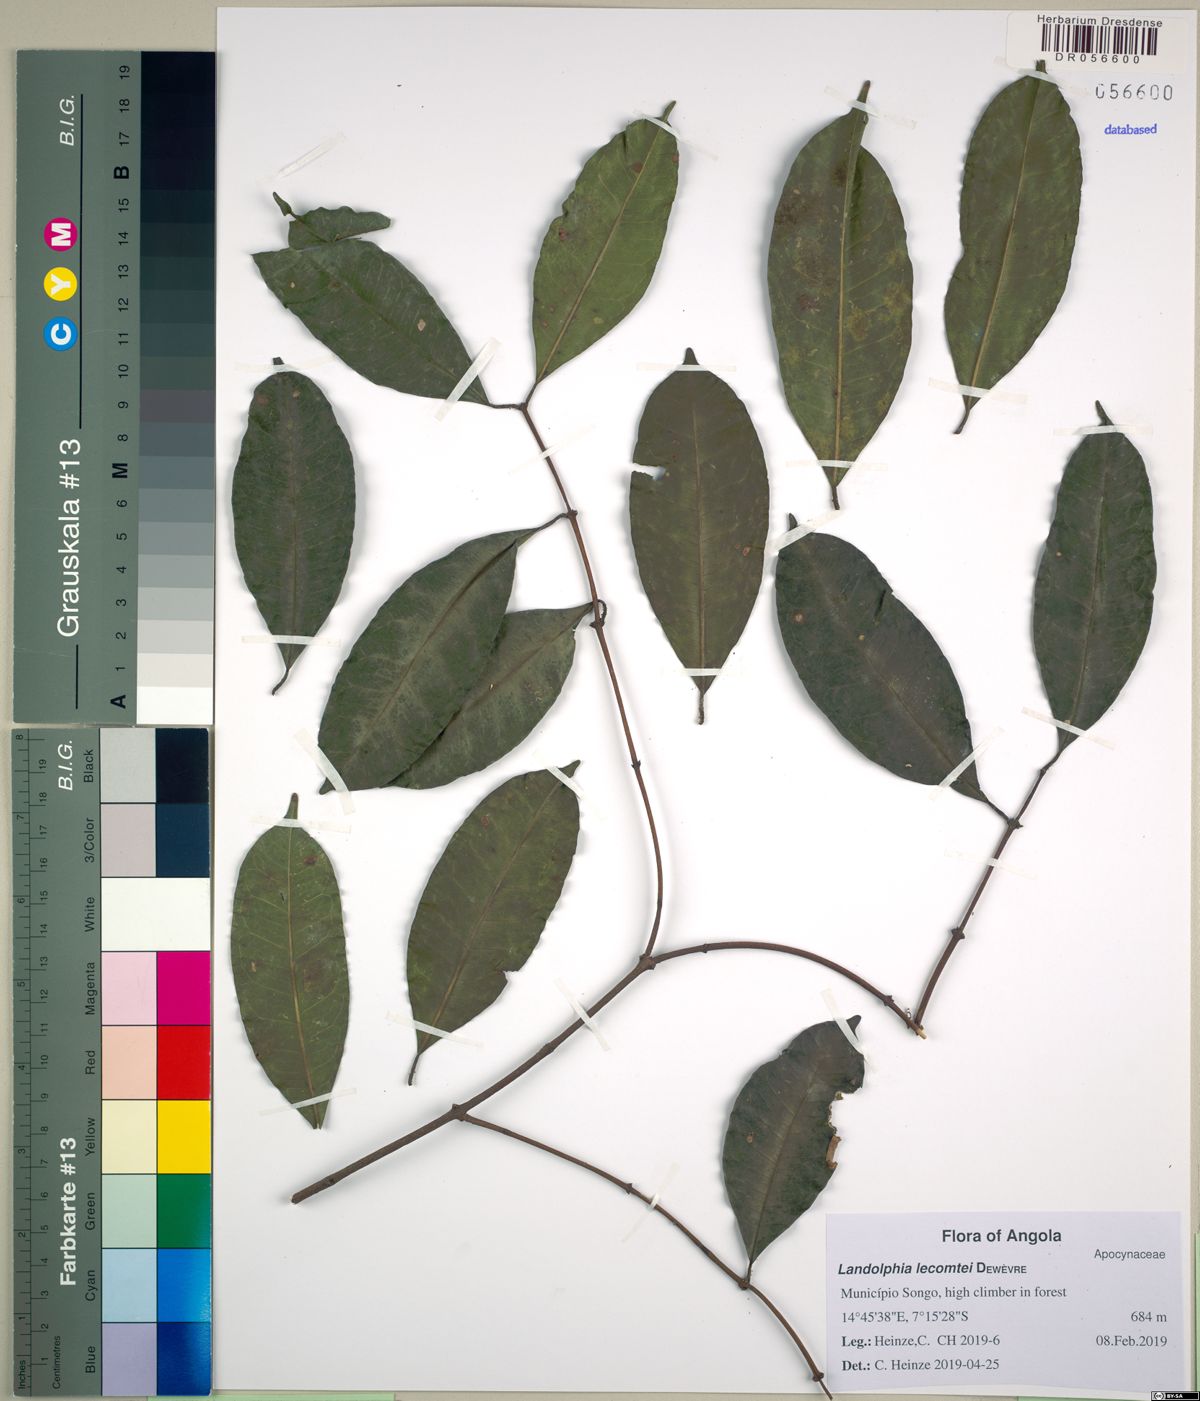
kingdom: Plantae
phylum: Tracheophyta
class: Magnoliopsida
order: Gentianales
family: Apocynaceae
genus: Clitandra
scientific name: Clitandra cymulosa
